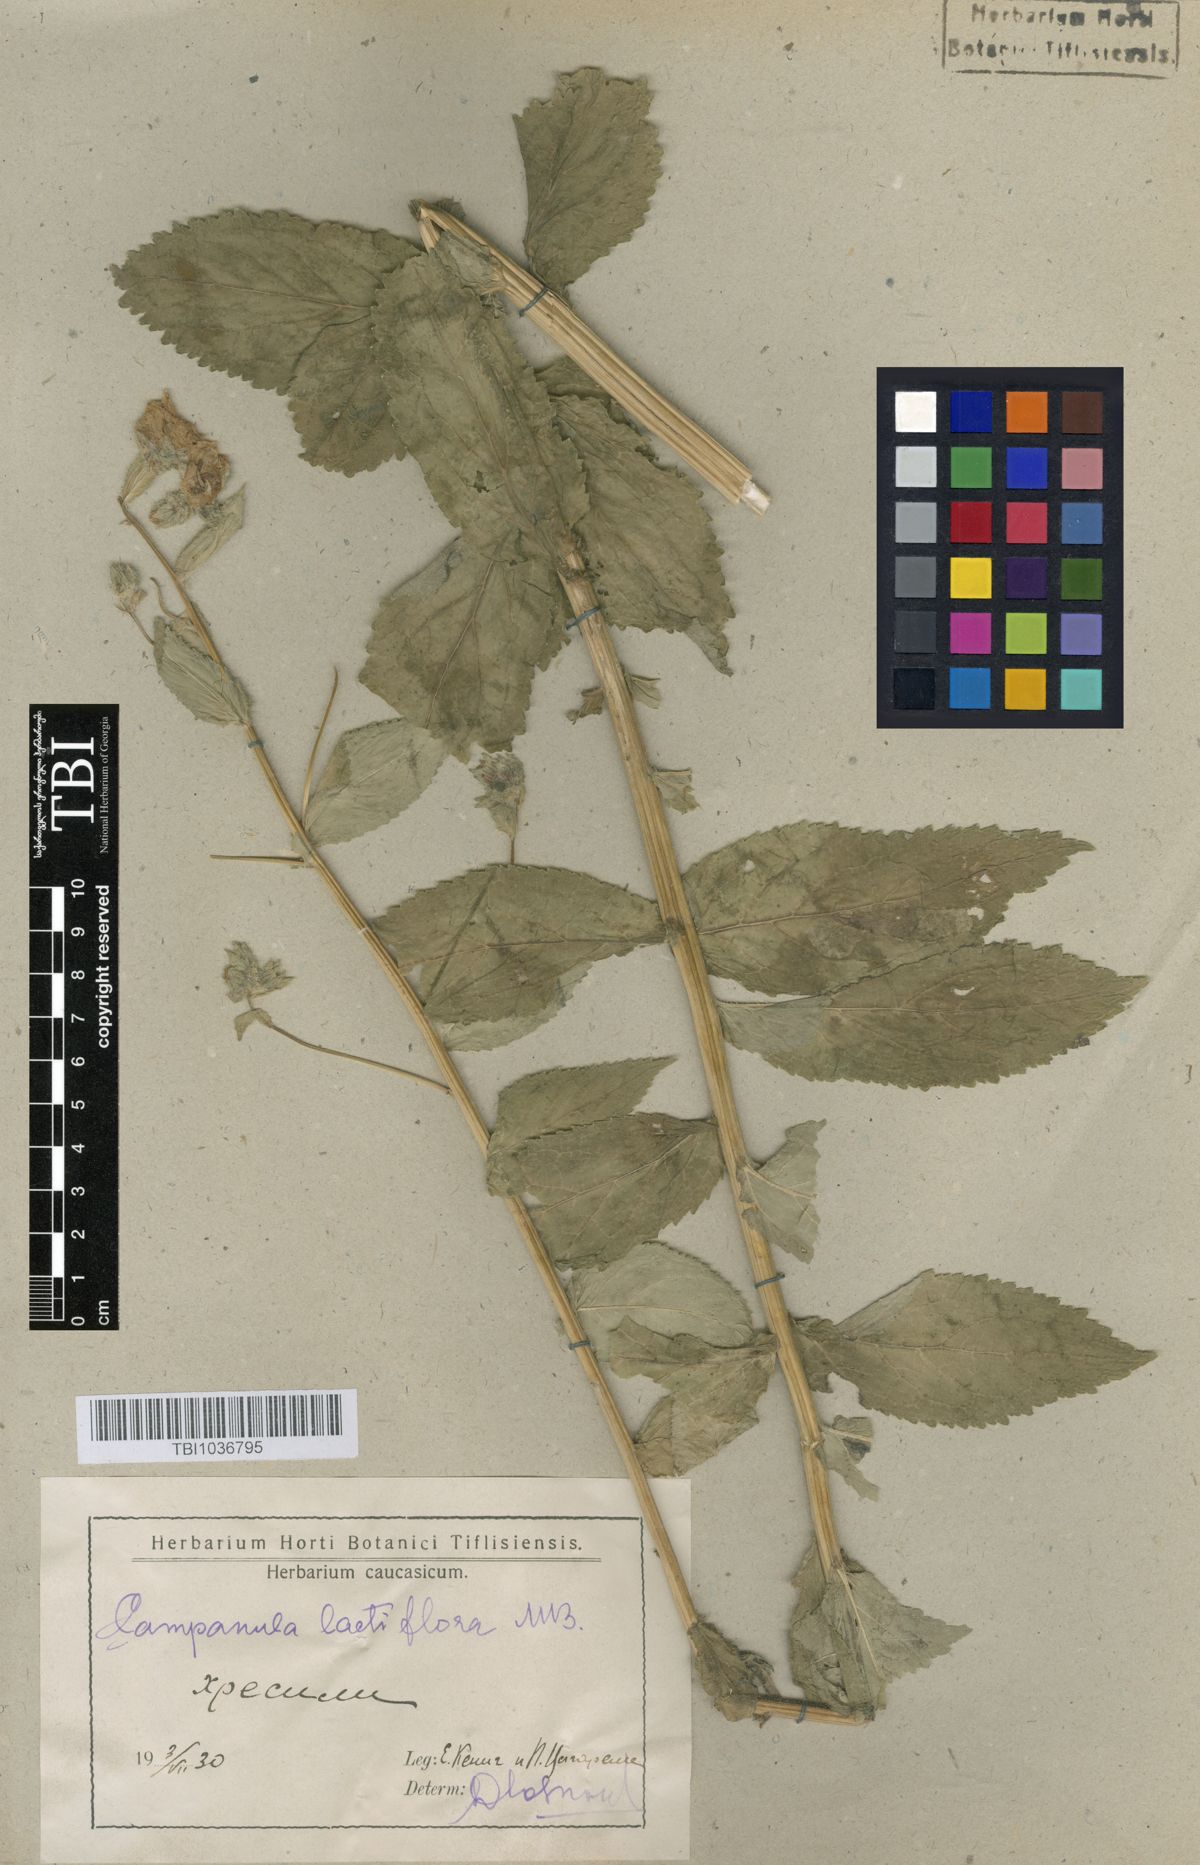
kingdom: Plantae
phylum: Tracheophyta
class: Magnoliopsida
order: Asterales
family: Campanulaceae
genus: Campanula
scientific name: Campanula lactiflora
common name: Milky bellflower
